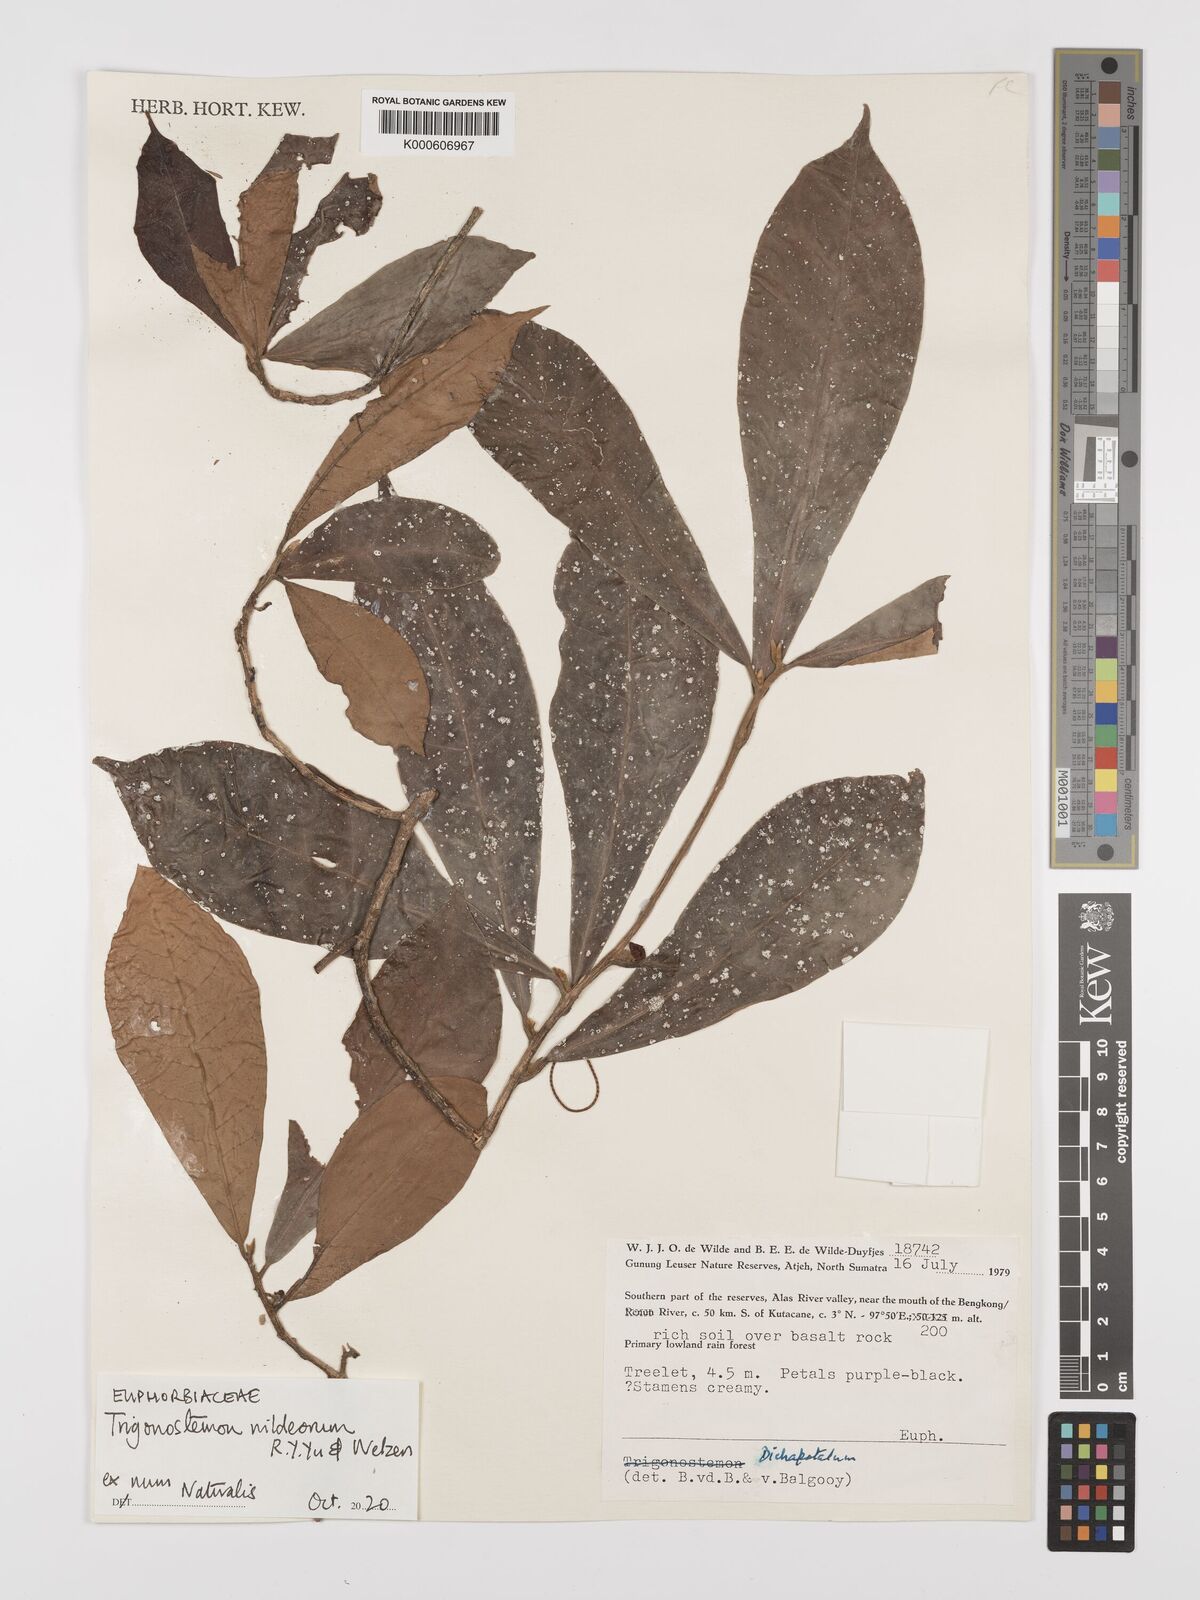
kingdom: Plantae
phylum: Tracheophyta
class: Magnoliopsida
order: Malpighiales
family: Euphorbiaceae
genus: Trigonostemon
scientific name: Trigonostemon wildeorum
